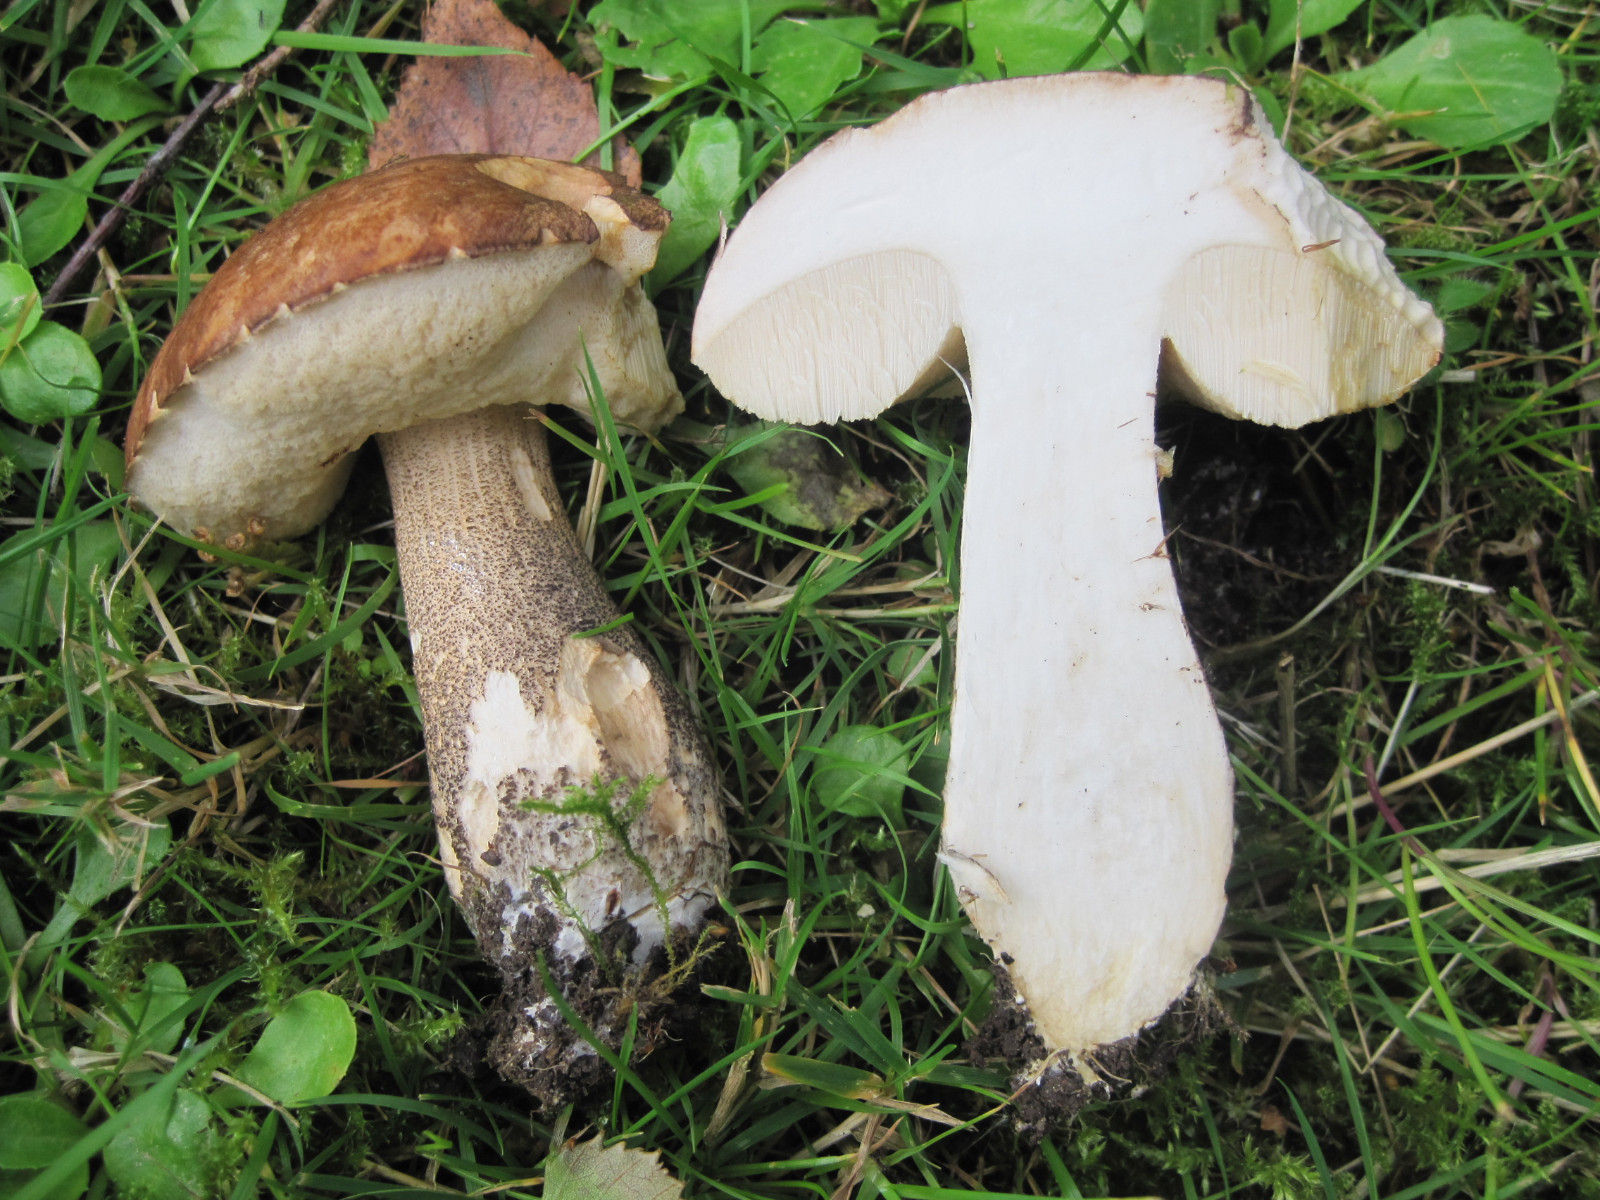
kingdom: Fungi
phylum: Basidiomycota
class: Agaricomycetes
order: Boletales
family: Boletaceae
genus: Leccinum
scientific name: Leccinum scabrum
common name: brun skælrørhat
